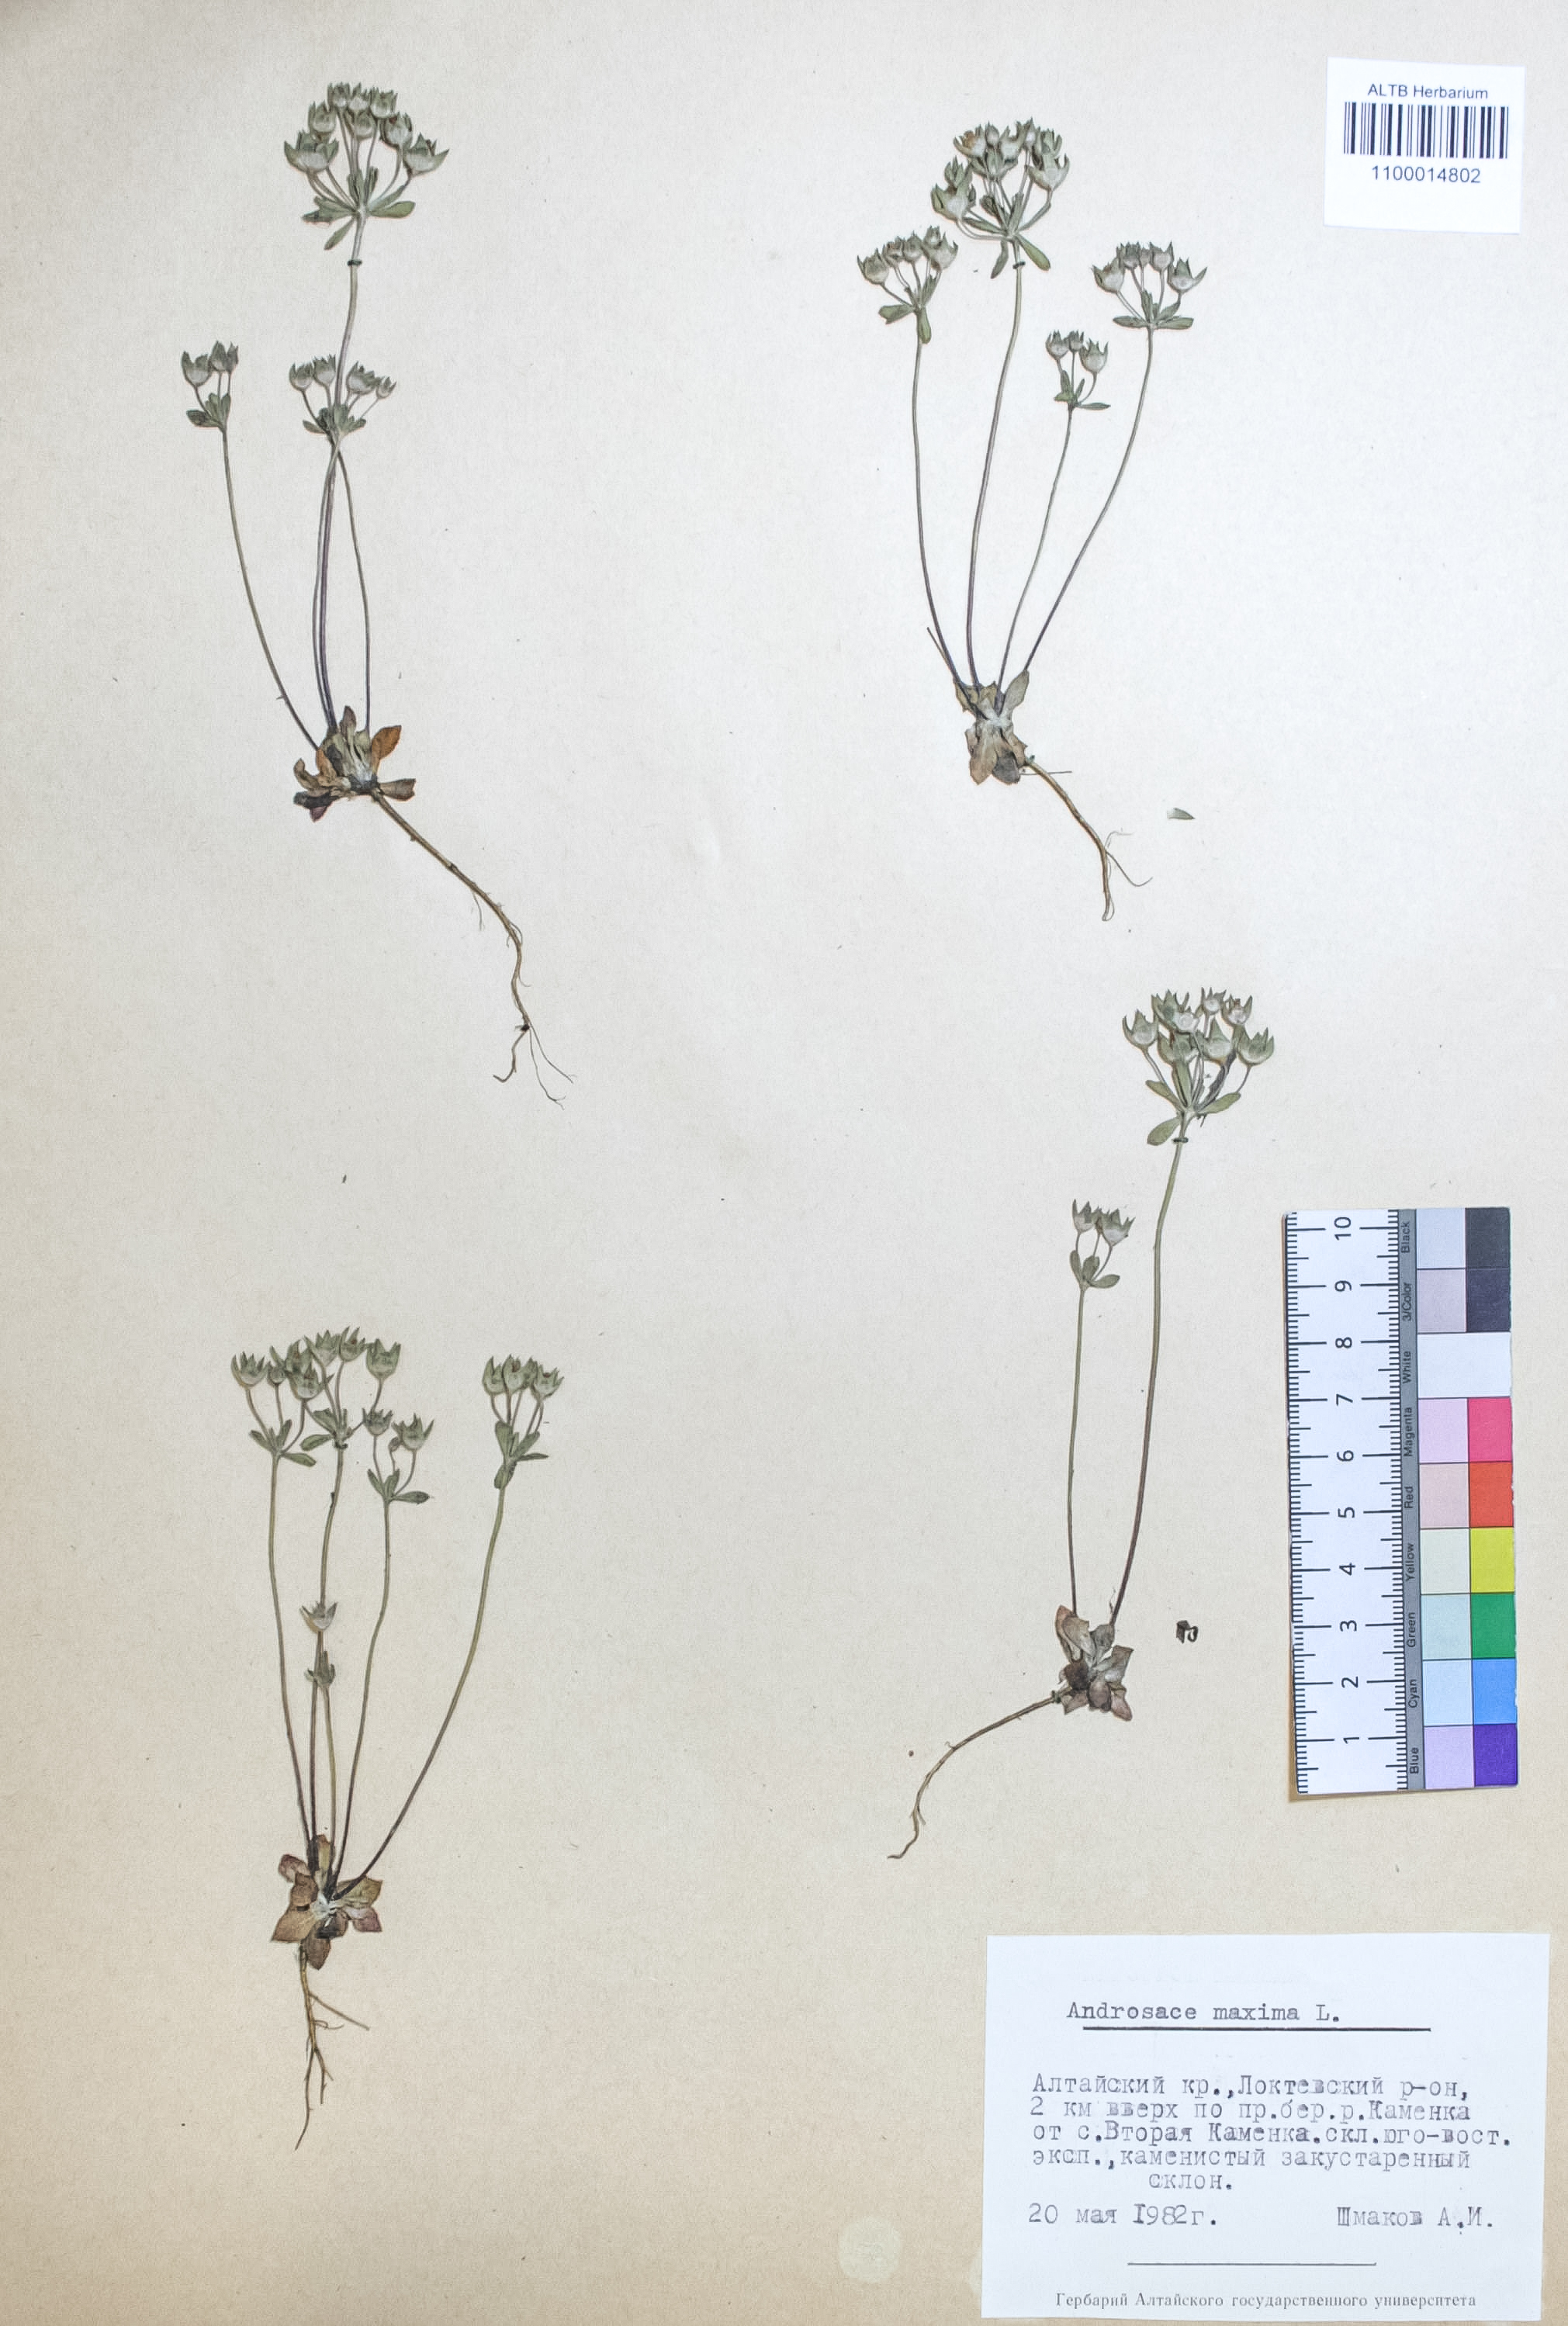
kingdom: Plantae
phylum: Tracheophyta
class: Magnoliopsida
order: Ericales
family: Primulaceae
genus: Androsace
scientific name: Androsace maxima
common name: Annual androsace
